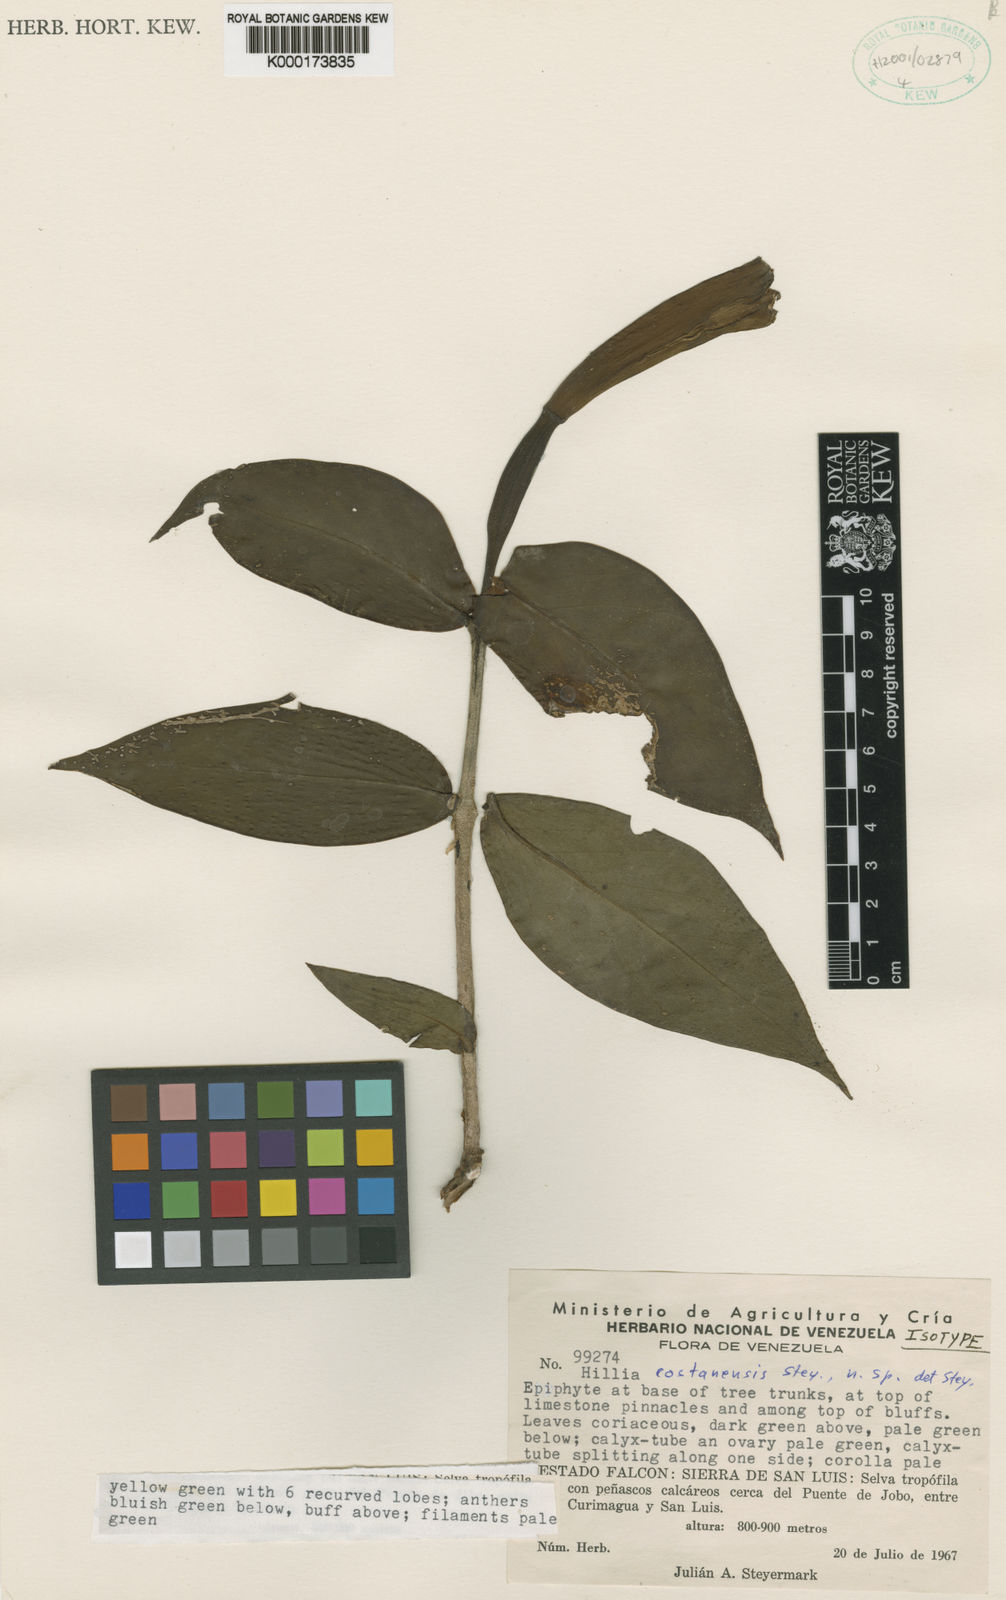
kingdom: Plantae
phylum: Tracheophyta
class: Magnoliopsida
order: Gentianales
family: Rubiaceae
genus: Hillia
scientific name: Hillia costanensis
